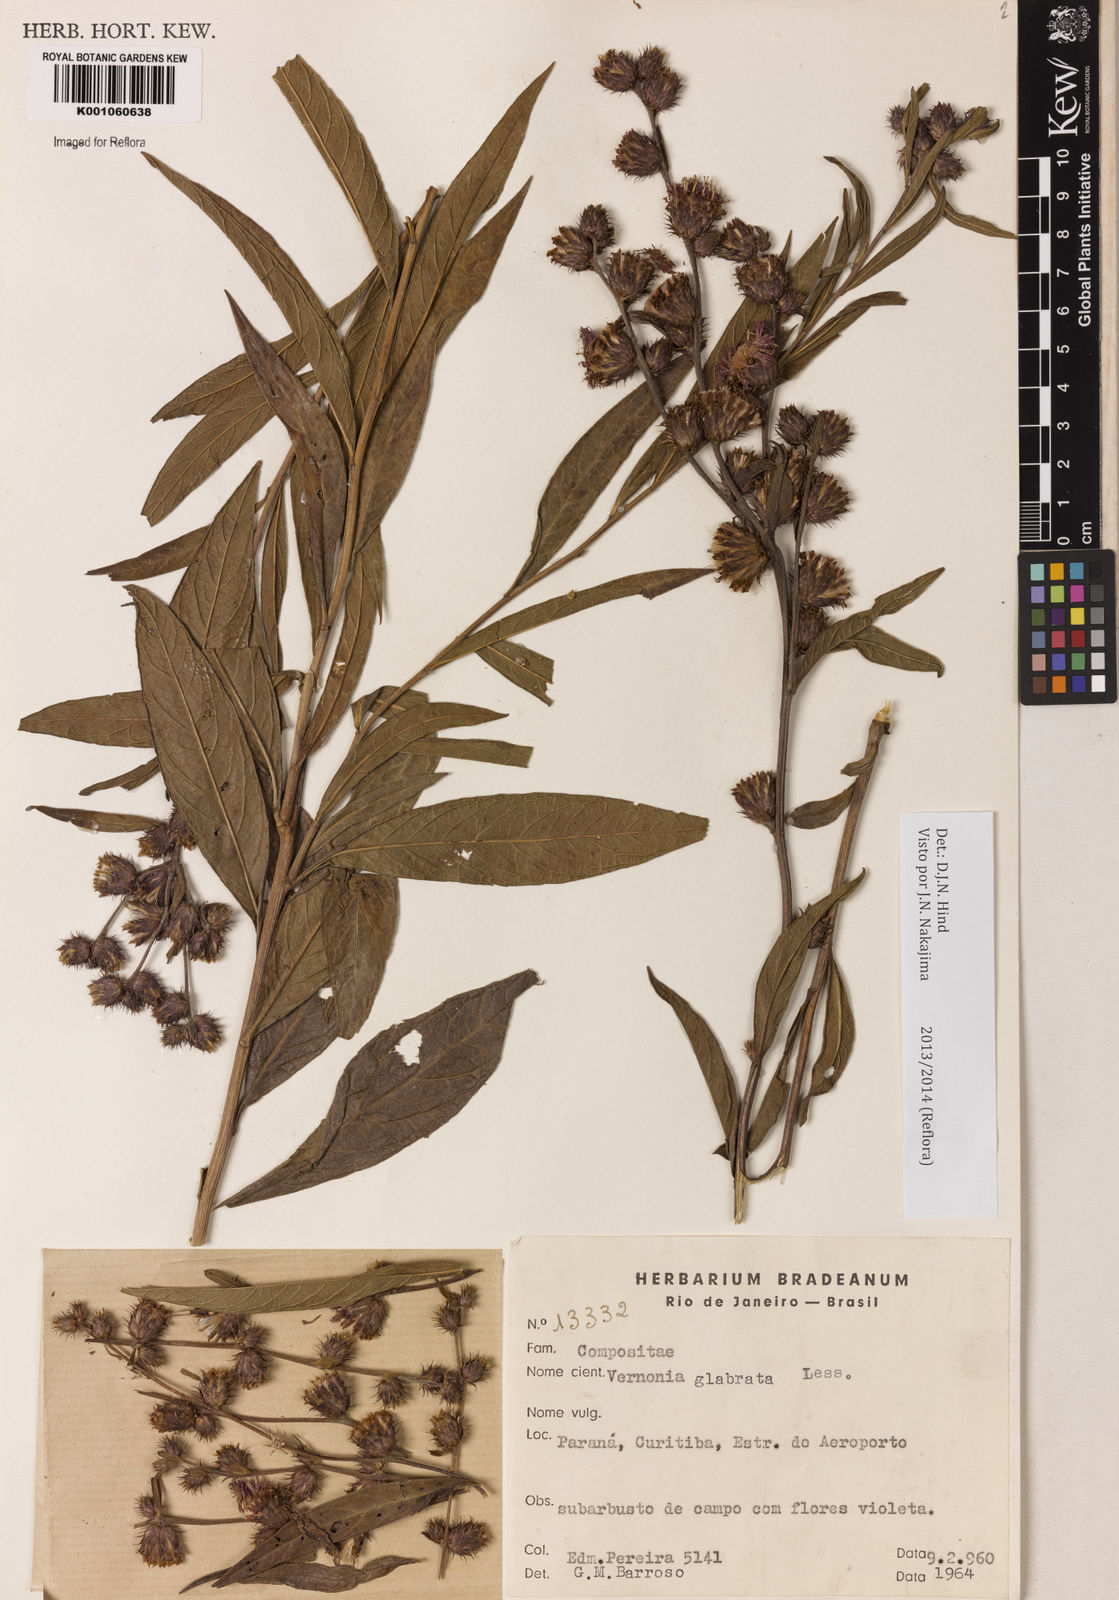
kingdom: Plantae
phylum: Tracheophyta
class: Magnoliopsida
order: Asterales
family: Asteraceae
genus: Lessingianthus
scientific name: Lessingianthus glabratus
